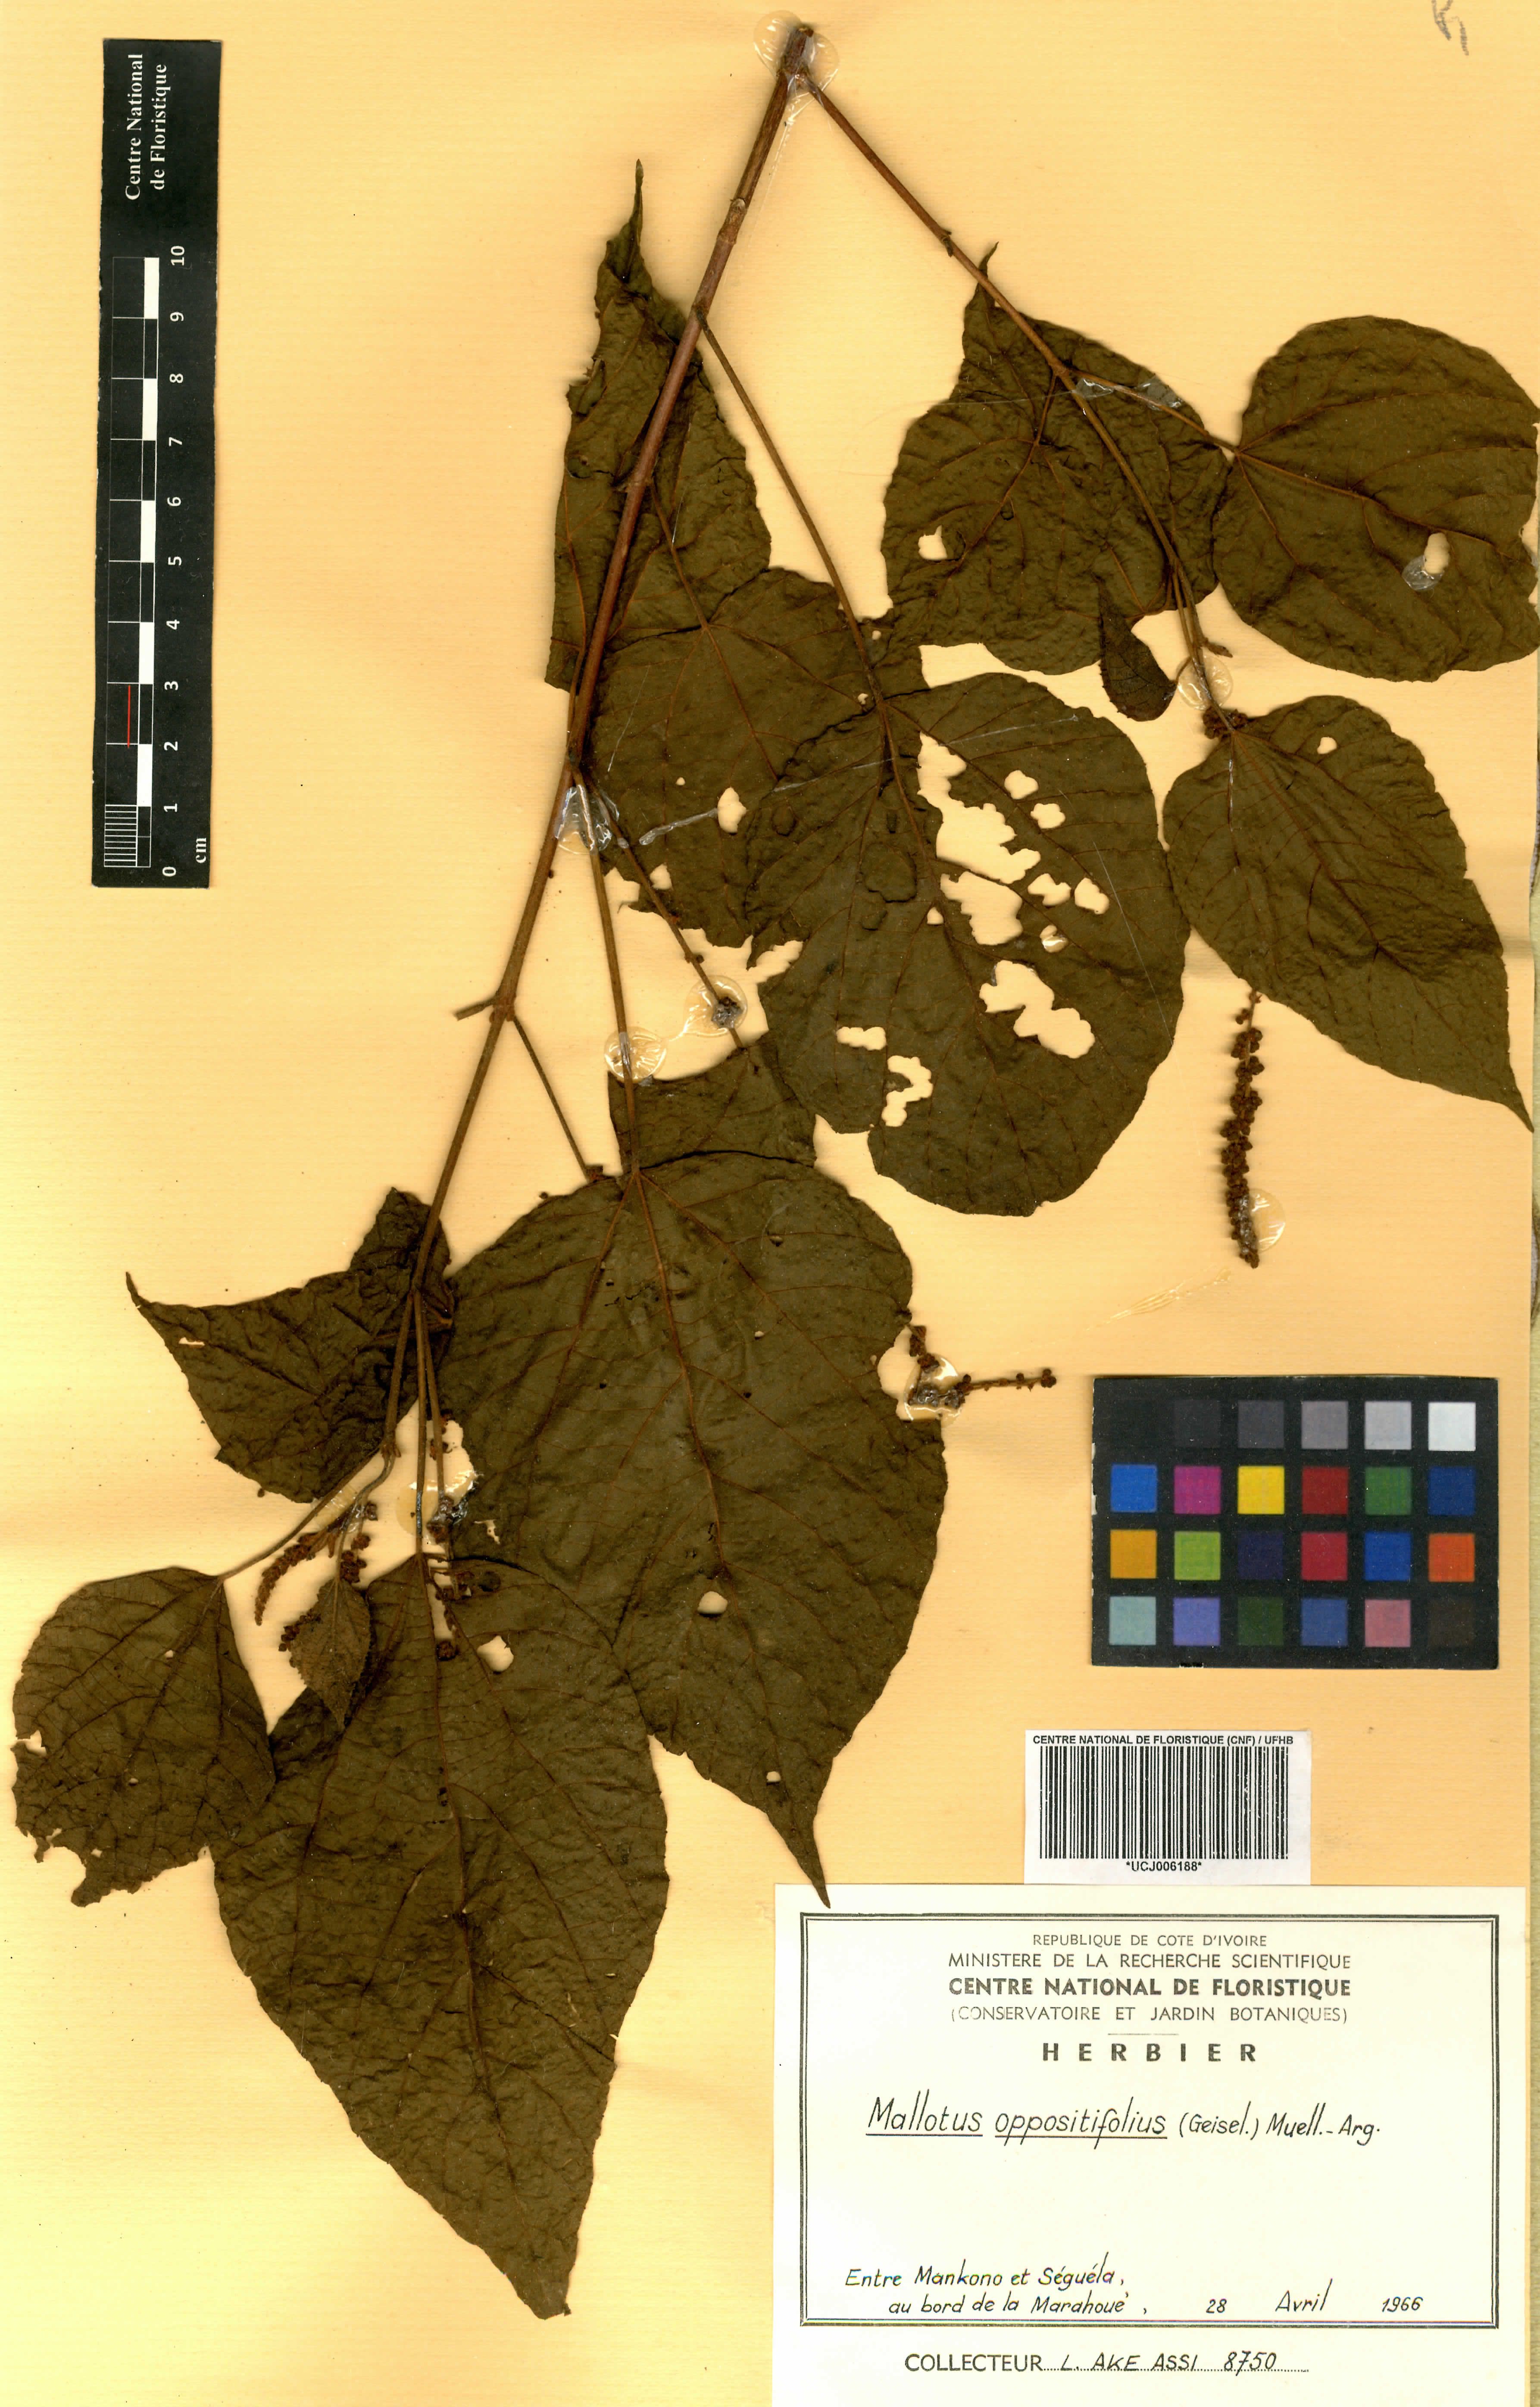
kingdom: Plantae
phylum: Tracheophyta
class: Magnoliopsida
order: Malpighiales
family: Euphorbiaceae
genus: Mallotus
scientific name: Mallotus oppositifolius
